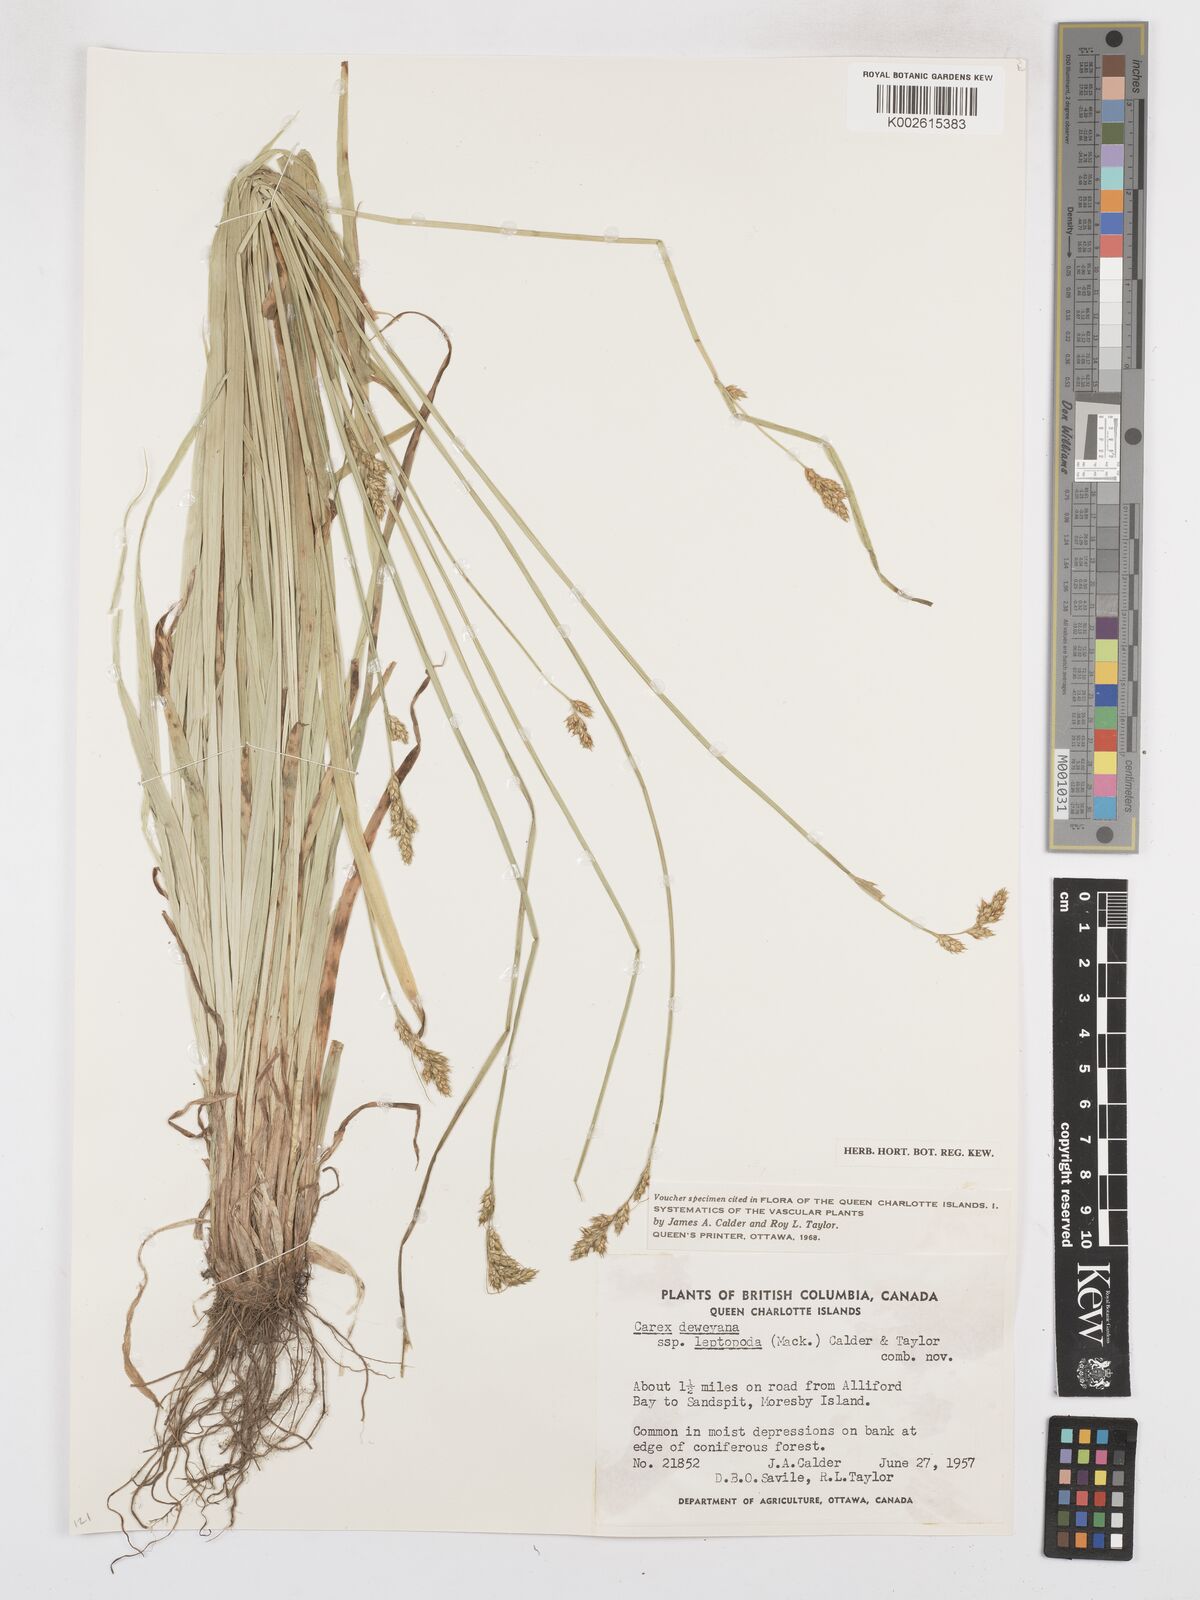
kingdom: Plantae
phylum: Tracheophyta
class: Liliopsida
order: Poales
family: Cyperaceae
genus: Carex
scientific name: Carex leptopoda
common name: Short-scale sedge
